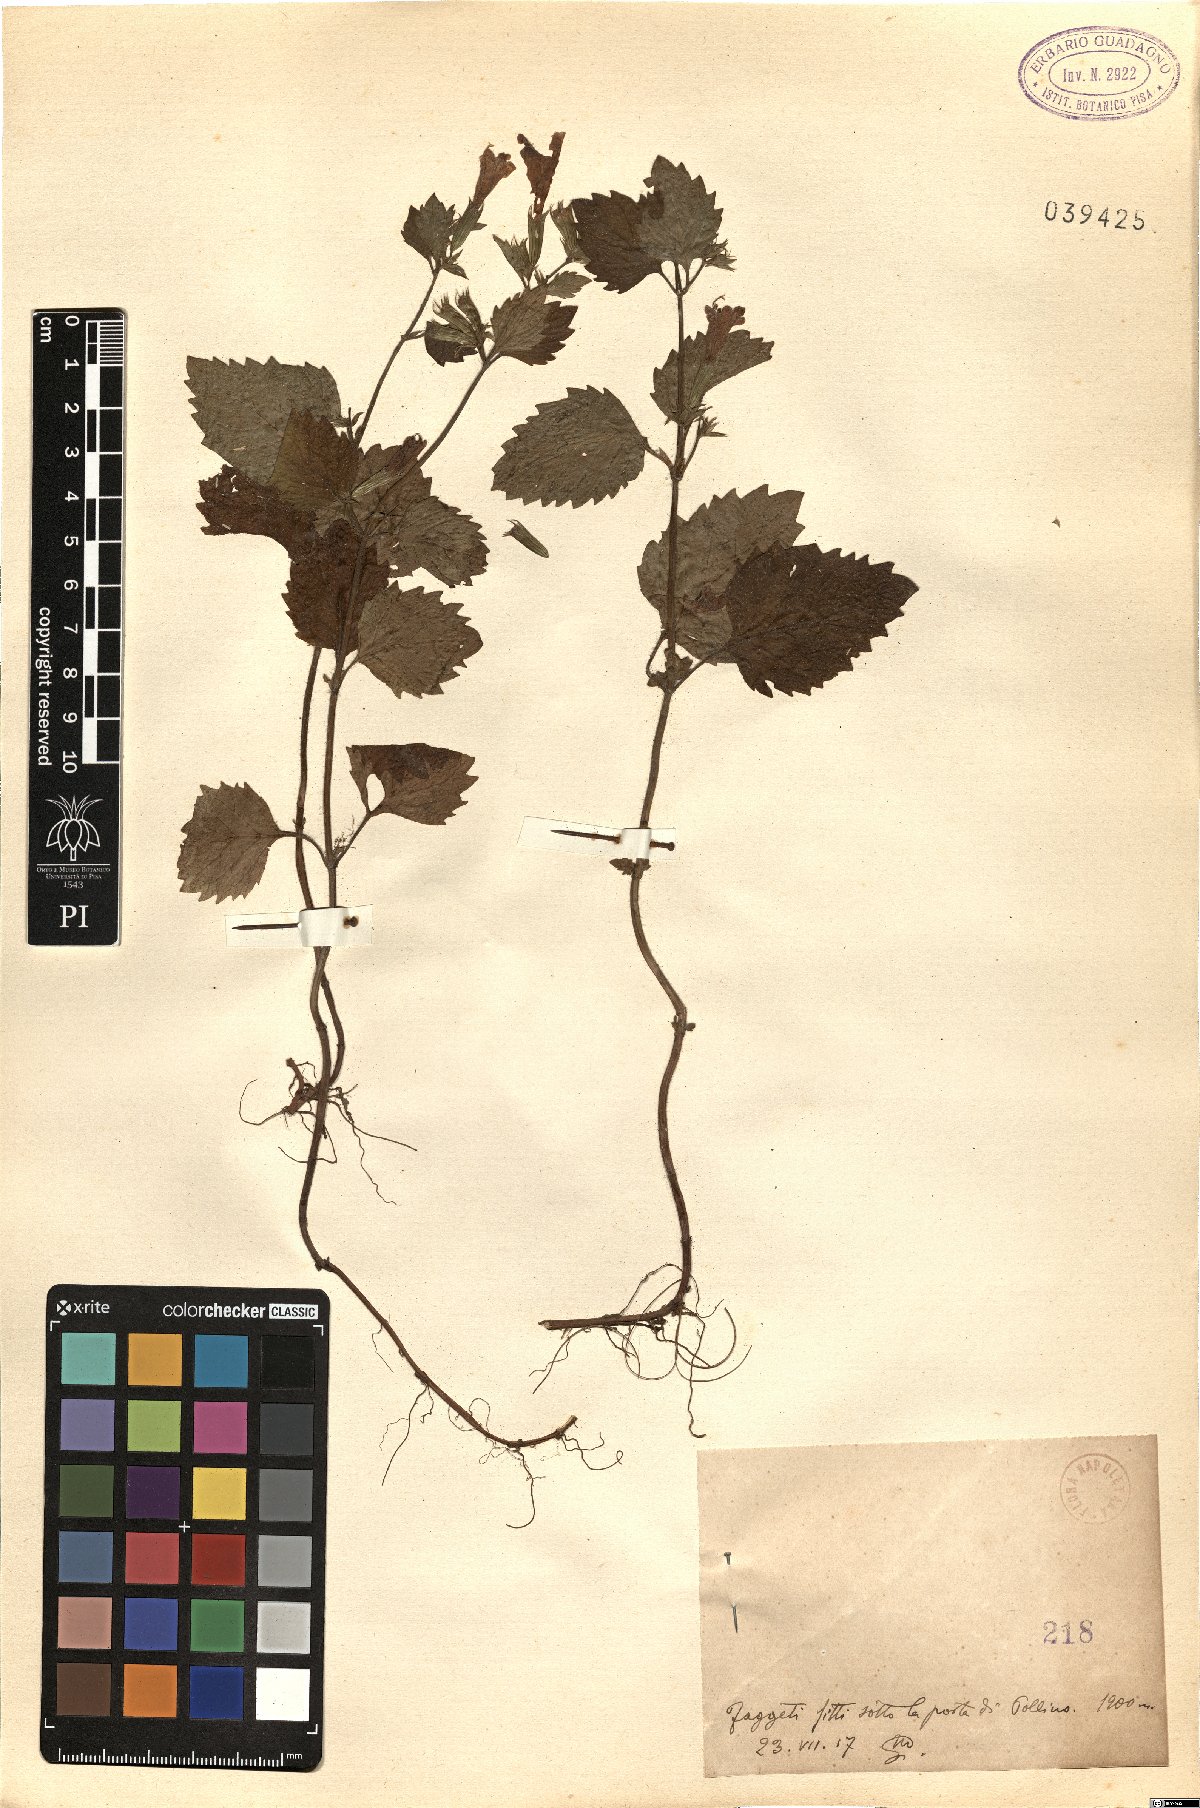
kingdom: Plantae
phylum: Tracheophyta
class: Magnoliopsida
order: Lamiales
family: Lamiaceae
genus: Calamintha
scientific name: Calamintha
